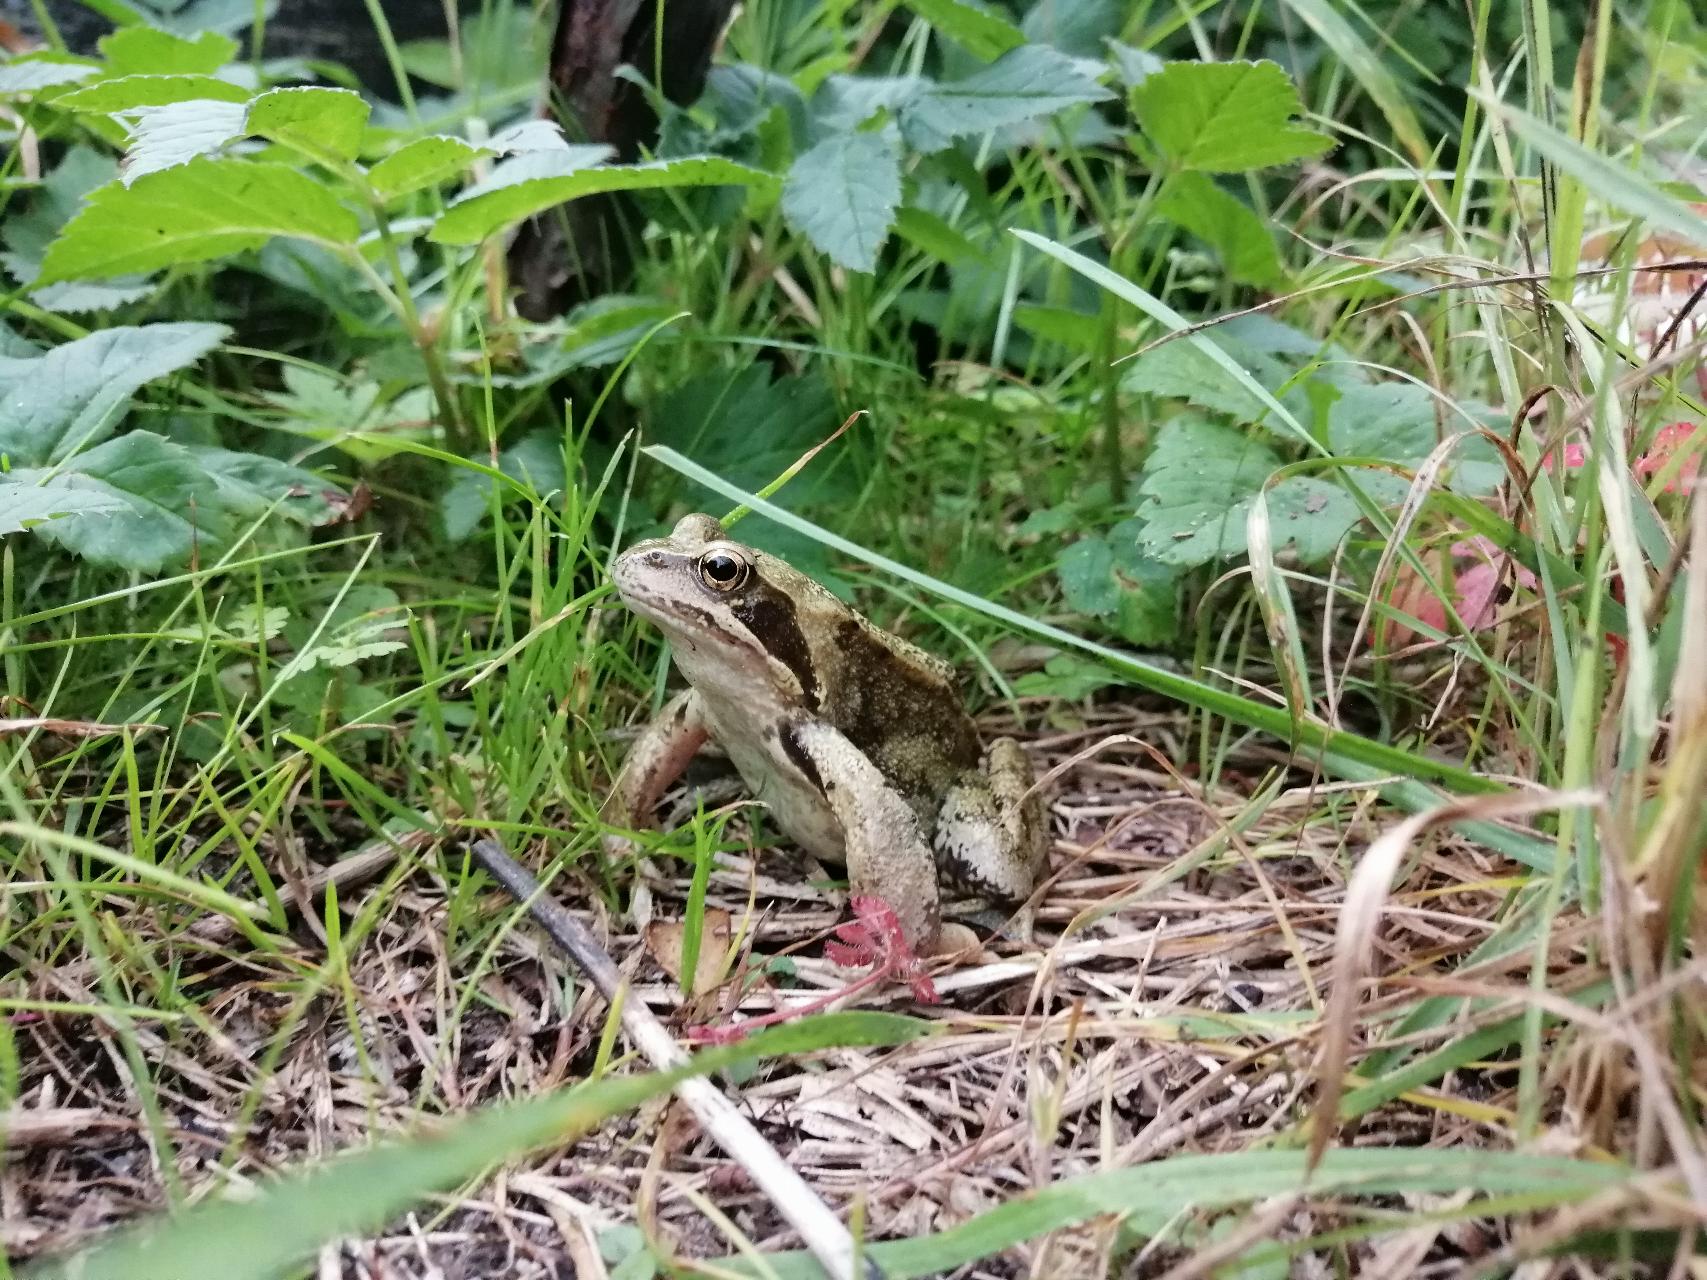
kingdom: Animalia
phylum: Chordata
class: Amphibia
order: Anura
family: Ranidae
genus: Rana
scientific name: Rana temporaria
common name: Butsnudet frø
